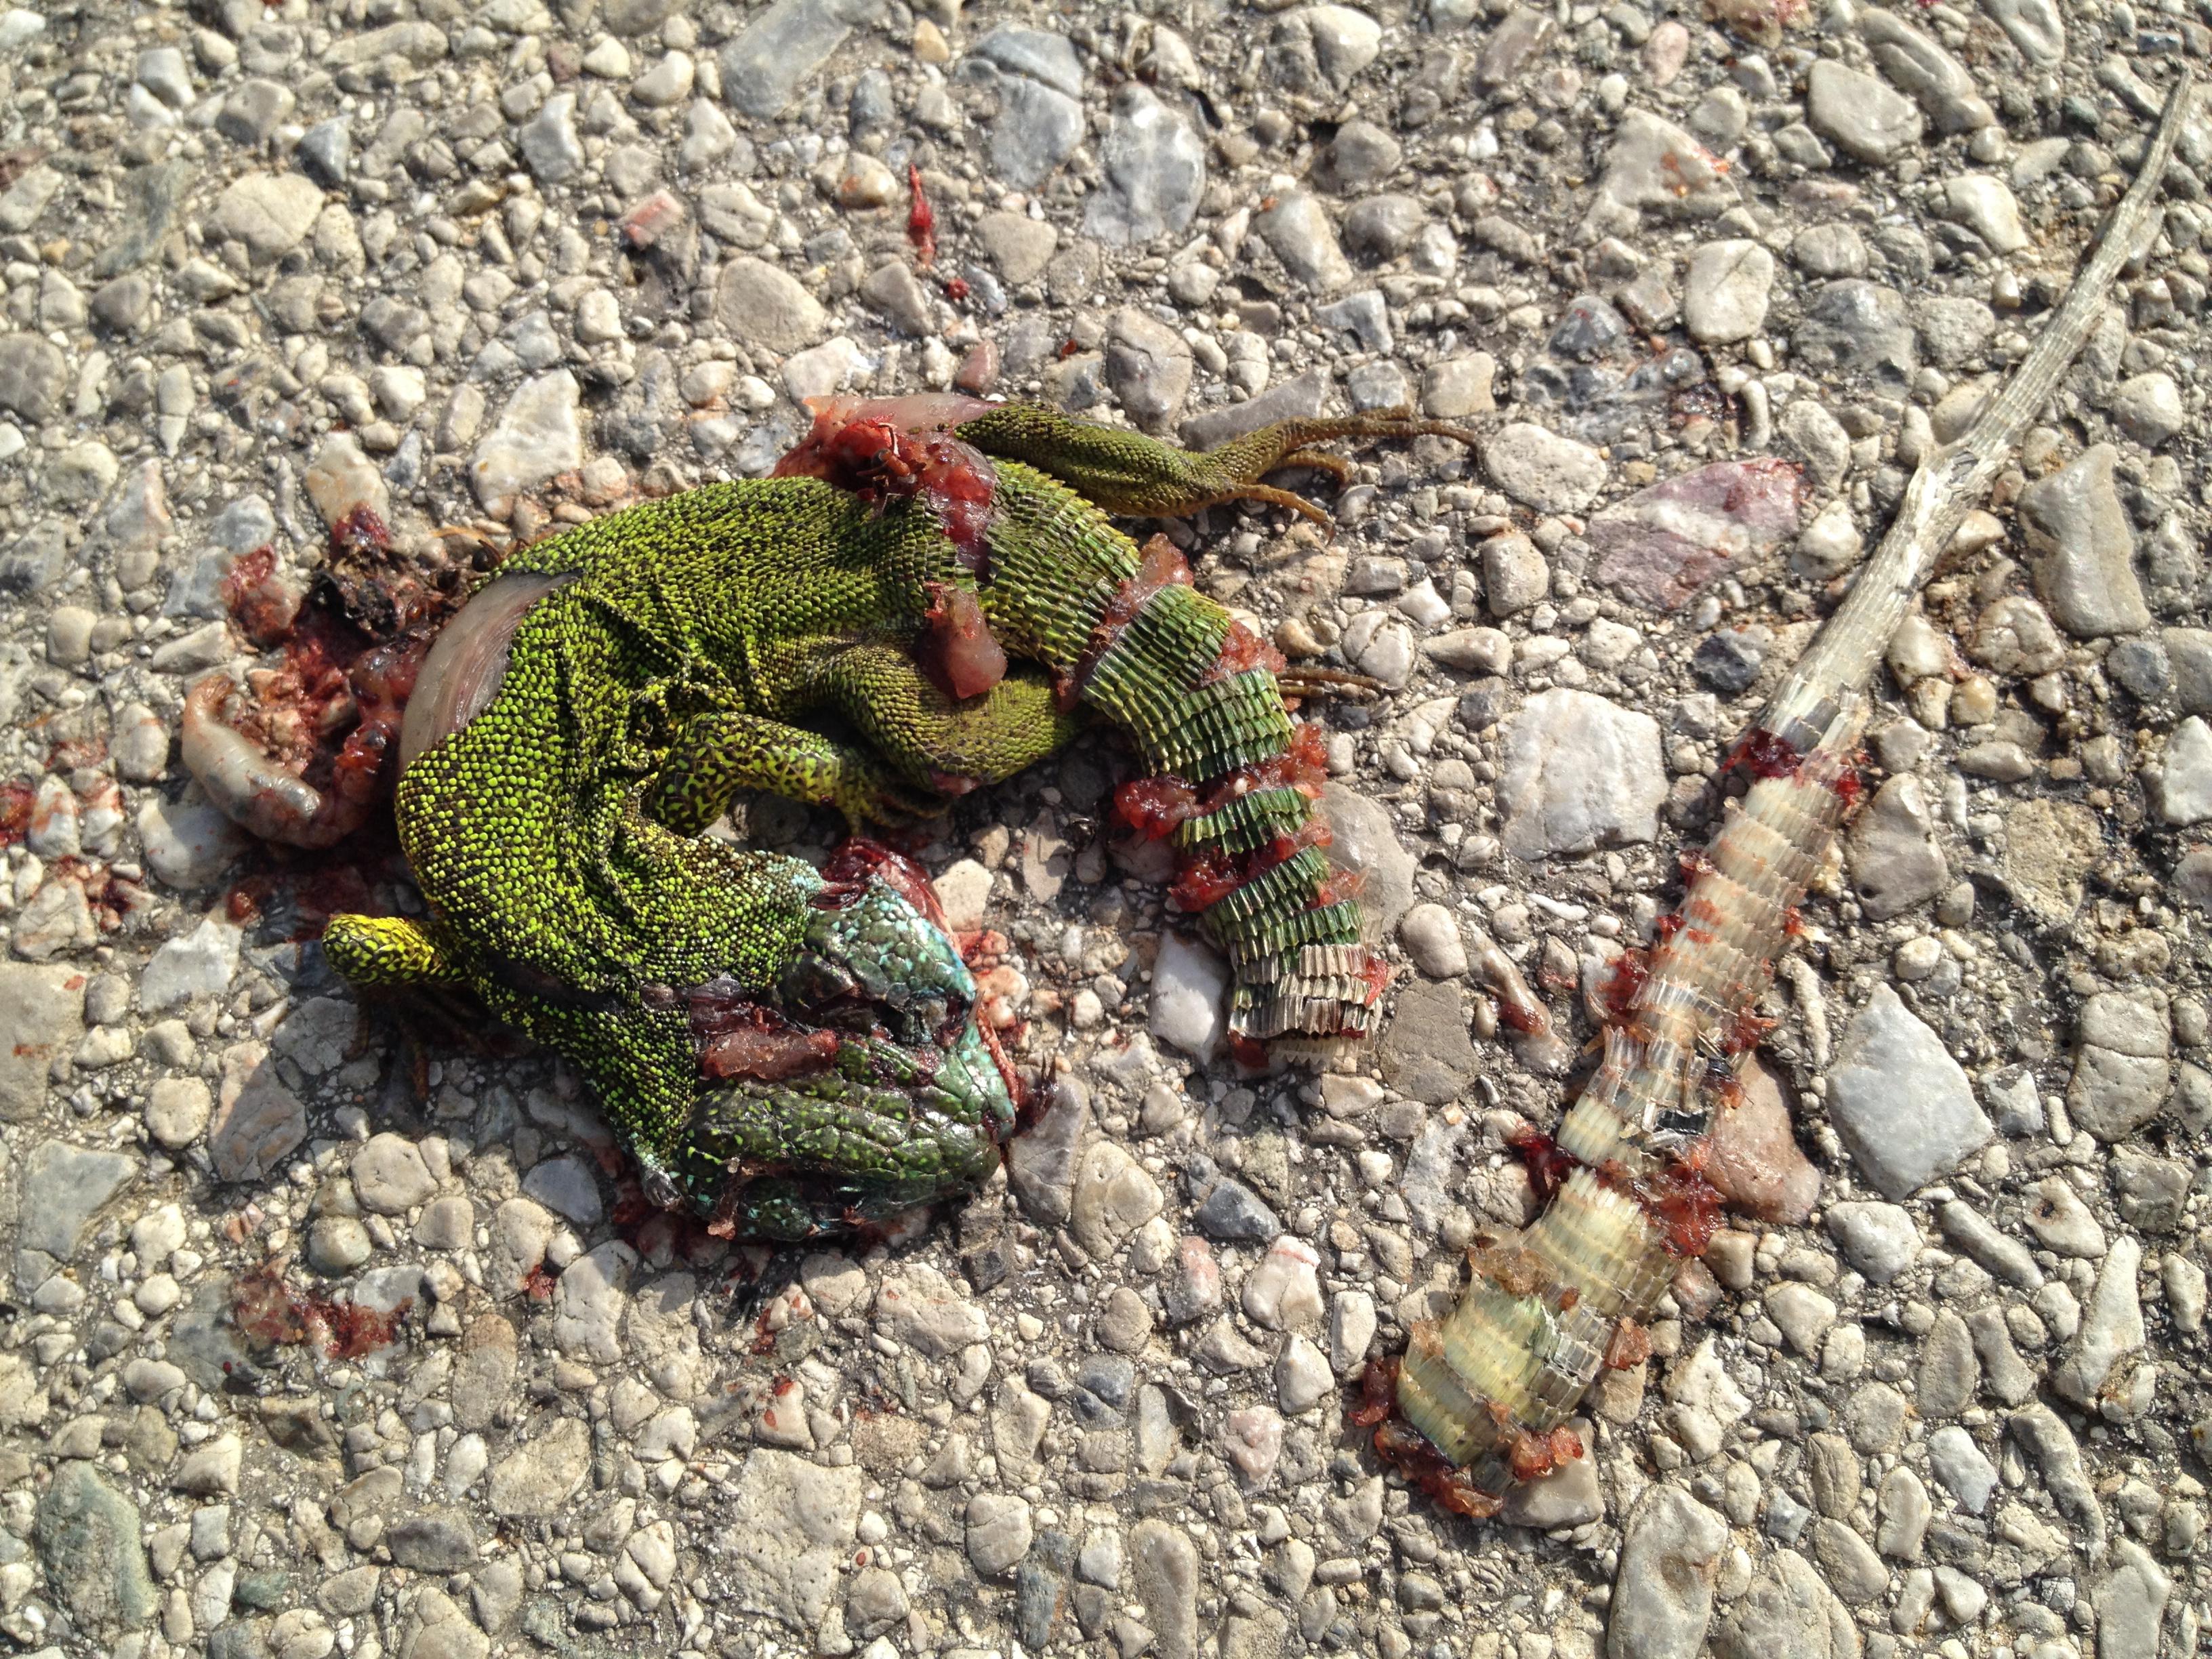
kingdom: Animalia
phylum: Chordata
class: Squamata
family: Lacertidae
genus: Lacerta
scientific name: Lacerta viridis
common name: European green lizard
